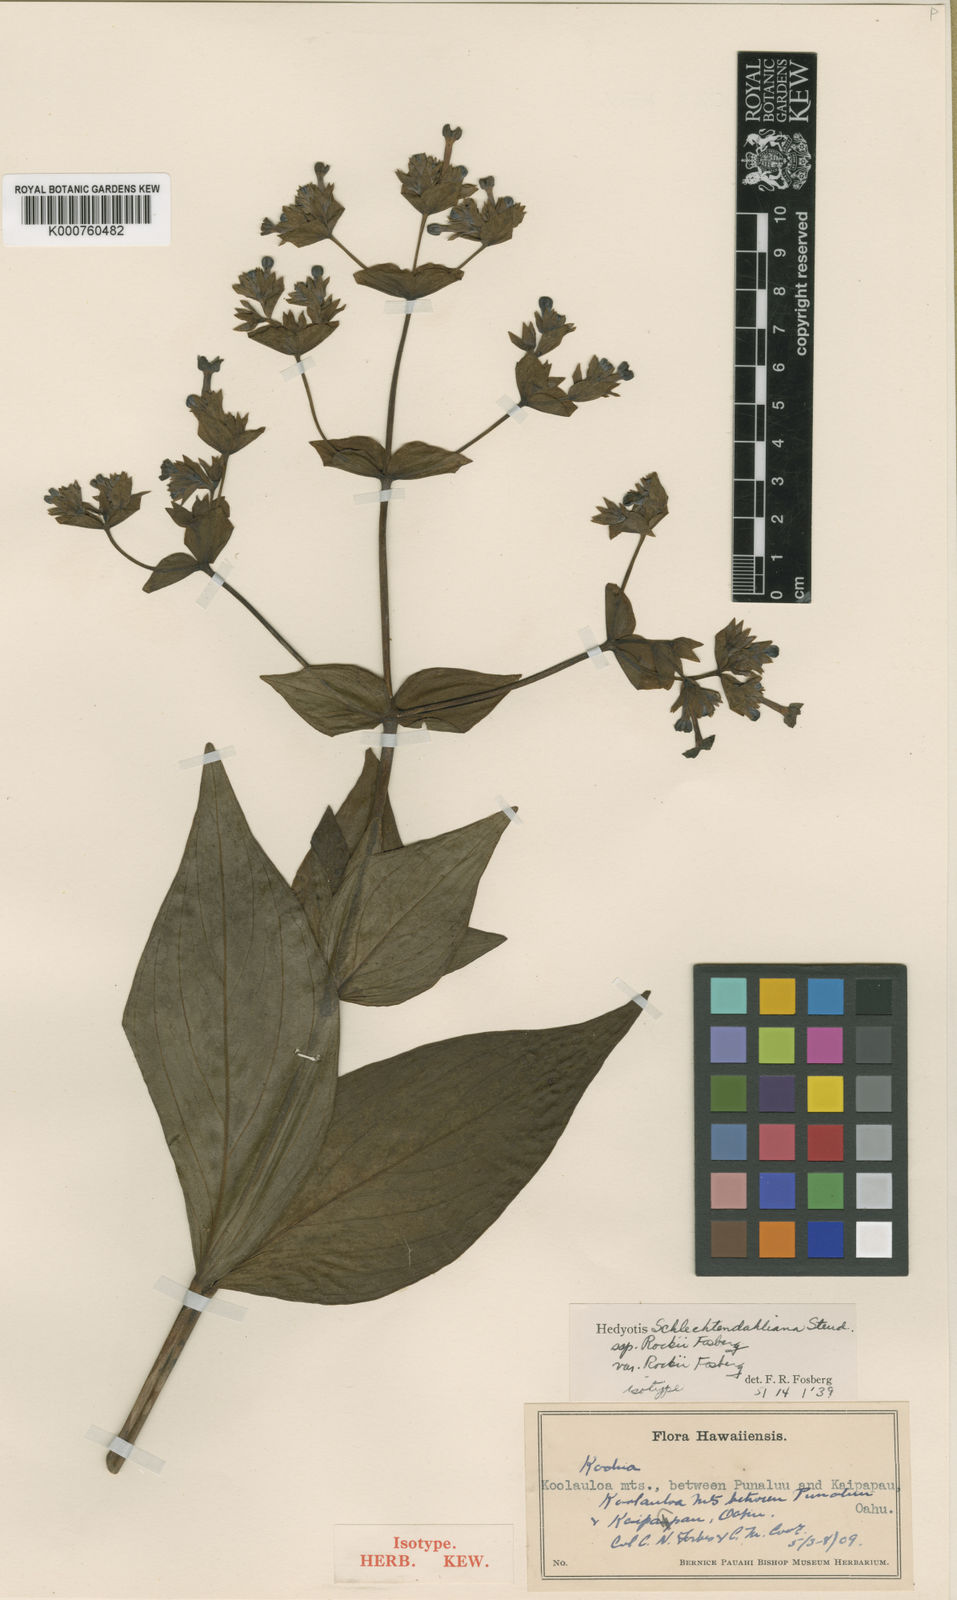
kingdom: Plantae
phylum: Tracheophyta
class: Magnoliopsida
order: Gentianales
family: Rubiaceae
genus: Kadua
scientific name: Kadua cordata
